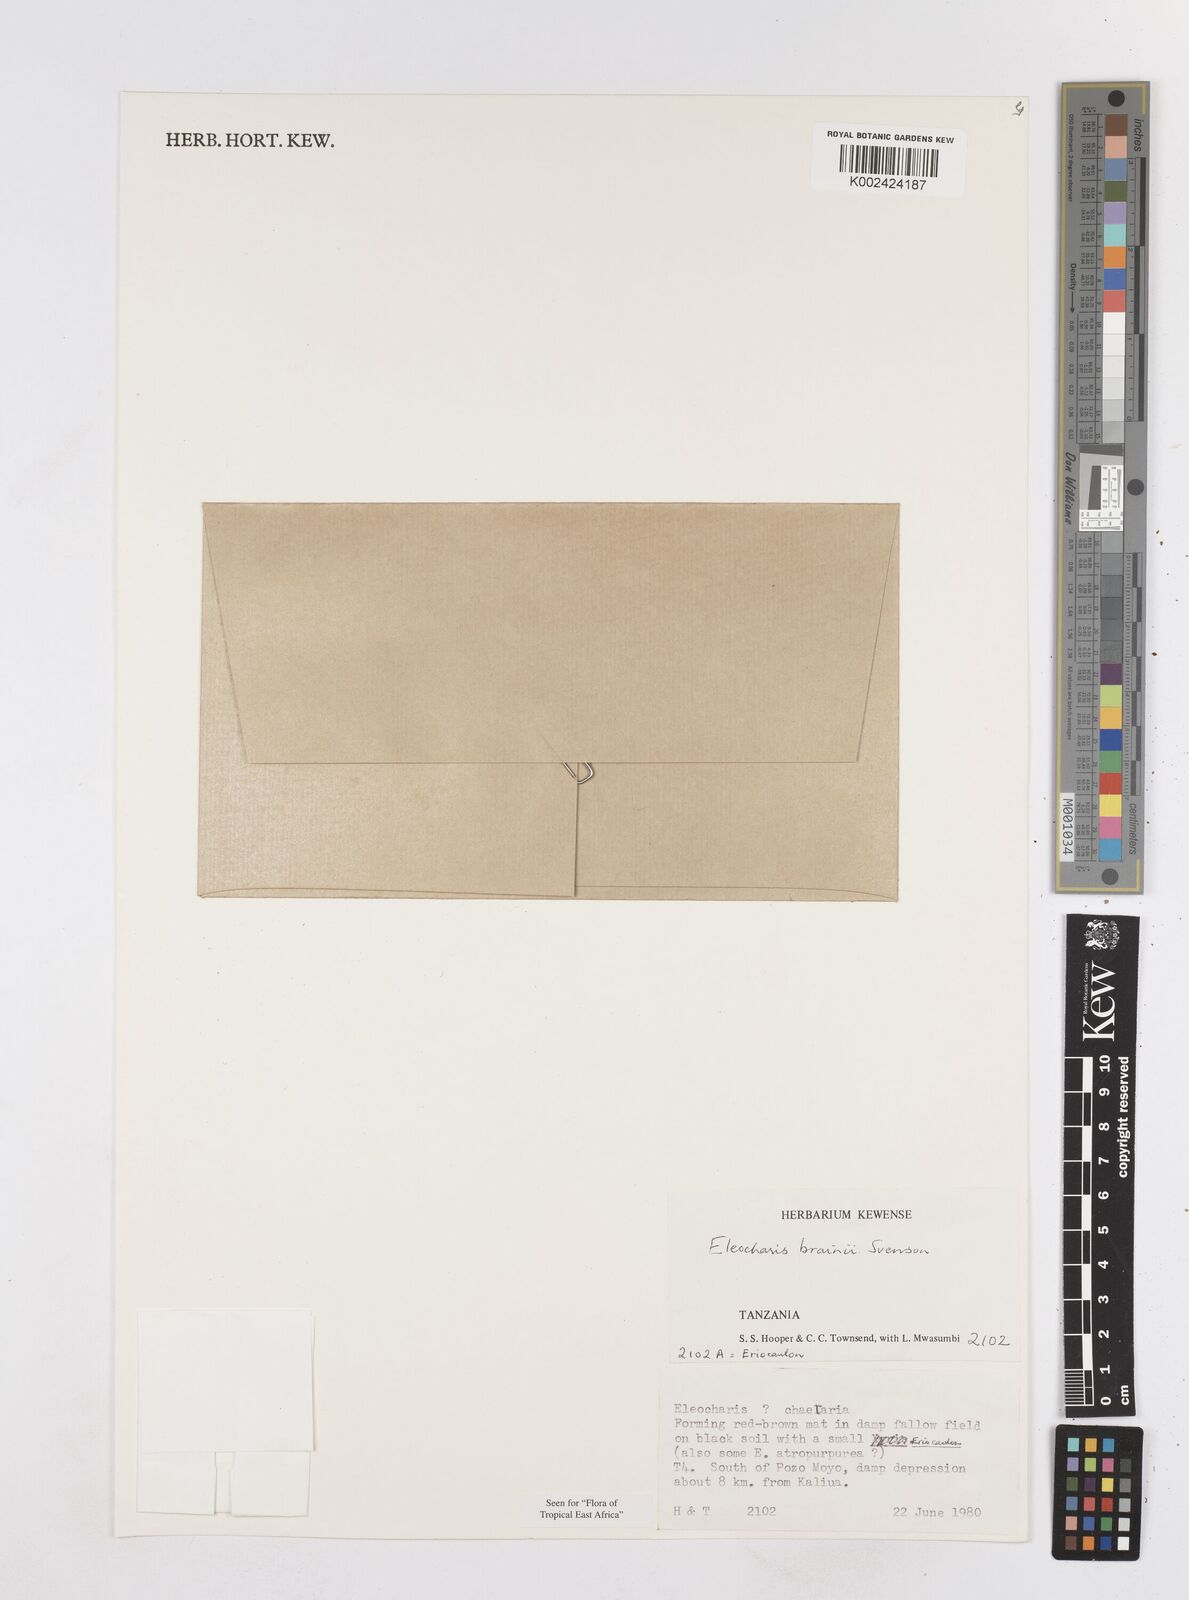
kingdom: Plantae
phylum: Tracheophyta
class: Liliopsida
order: Poales
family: Cyperaceae
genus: Eleocharis
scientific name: Eleocharis brainii
